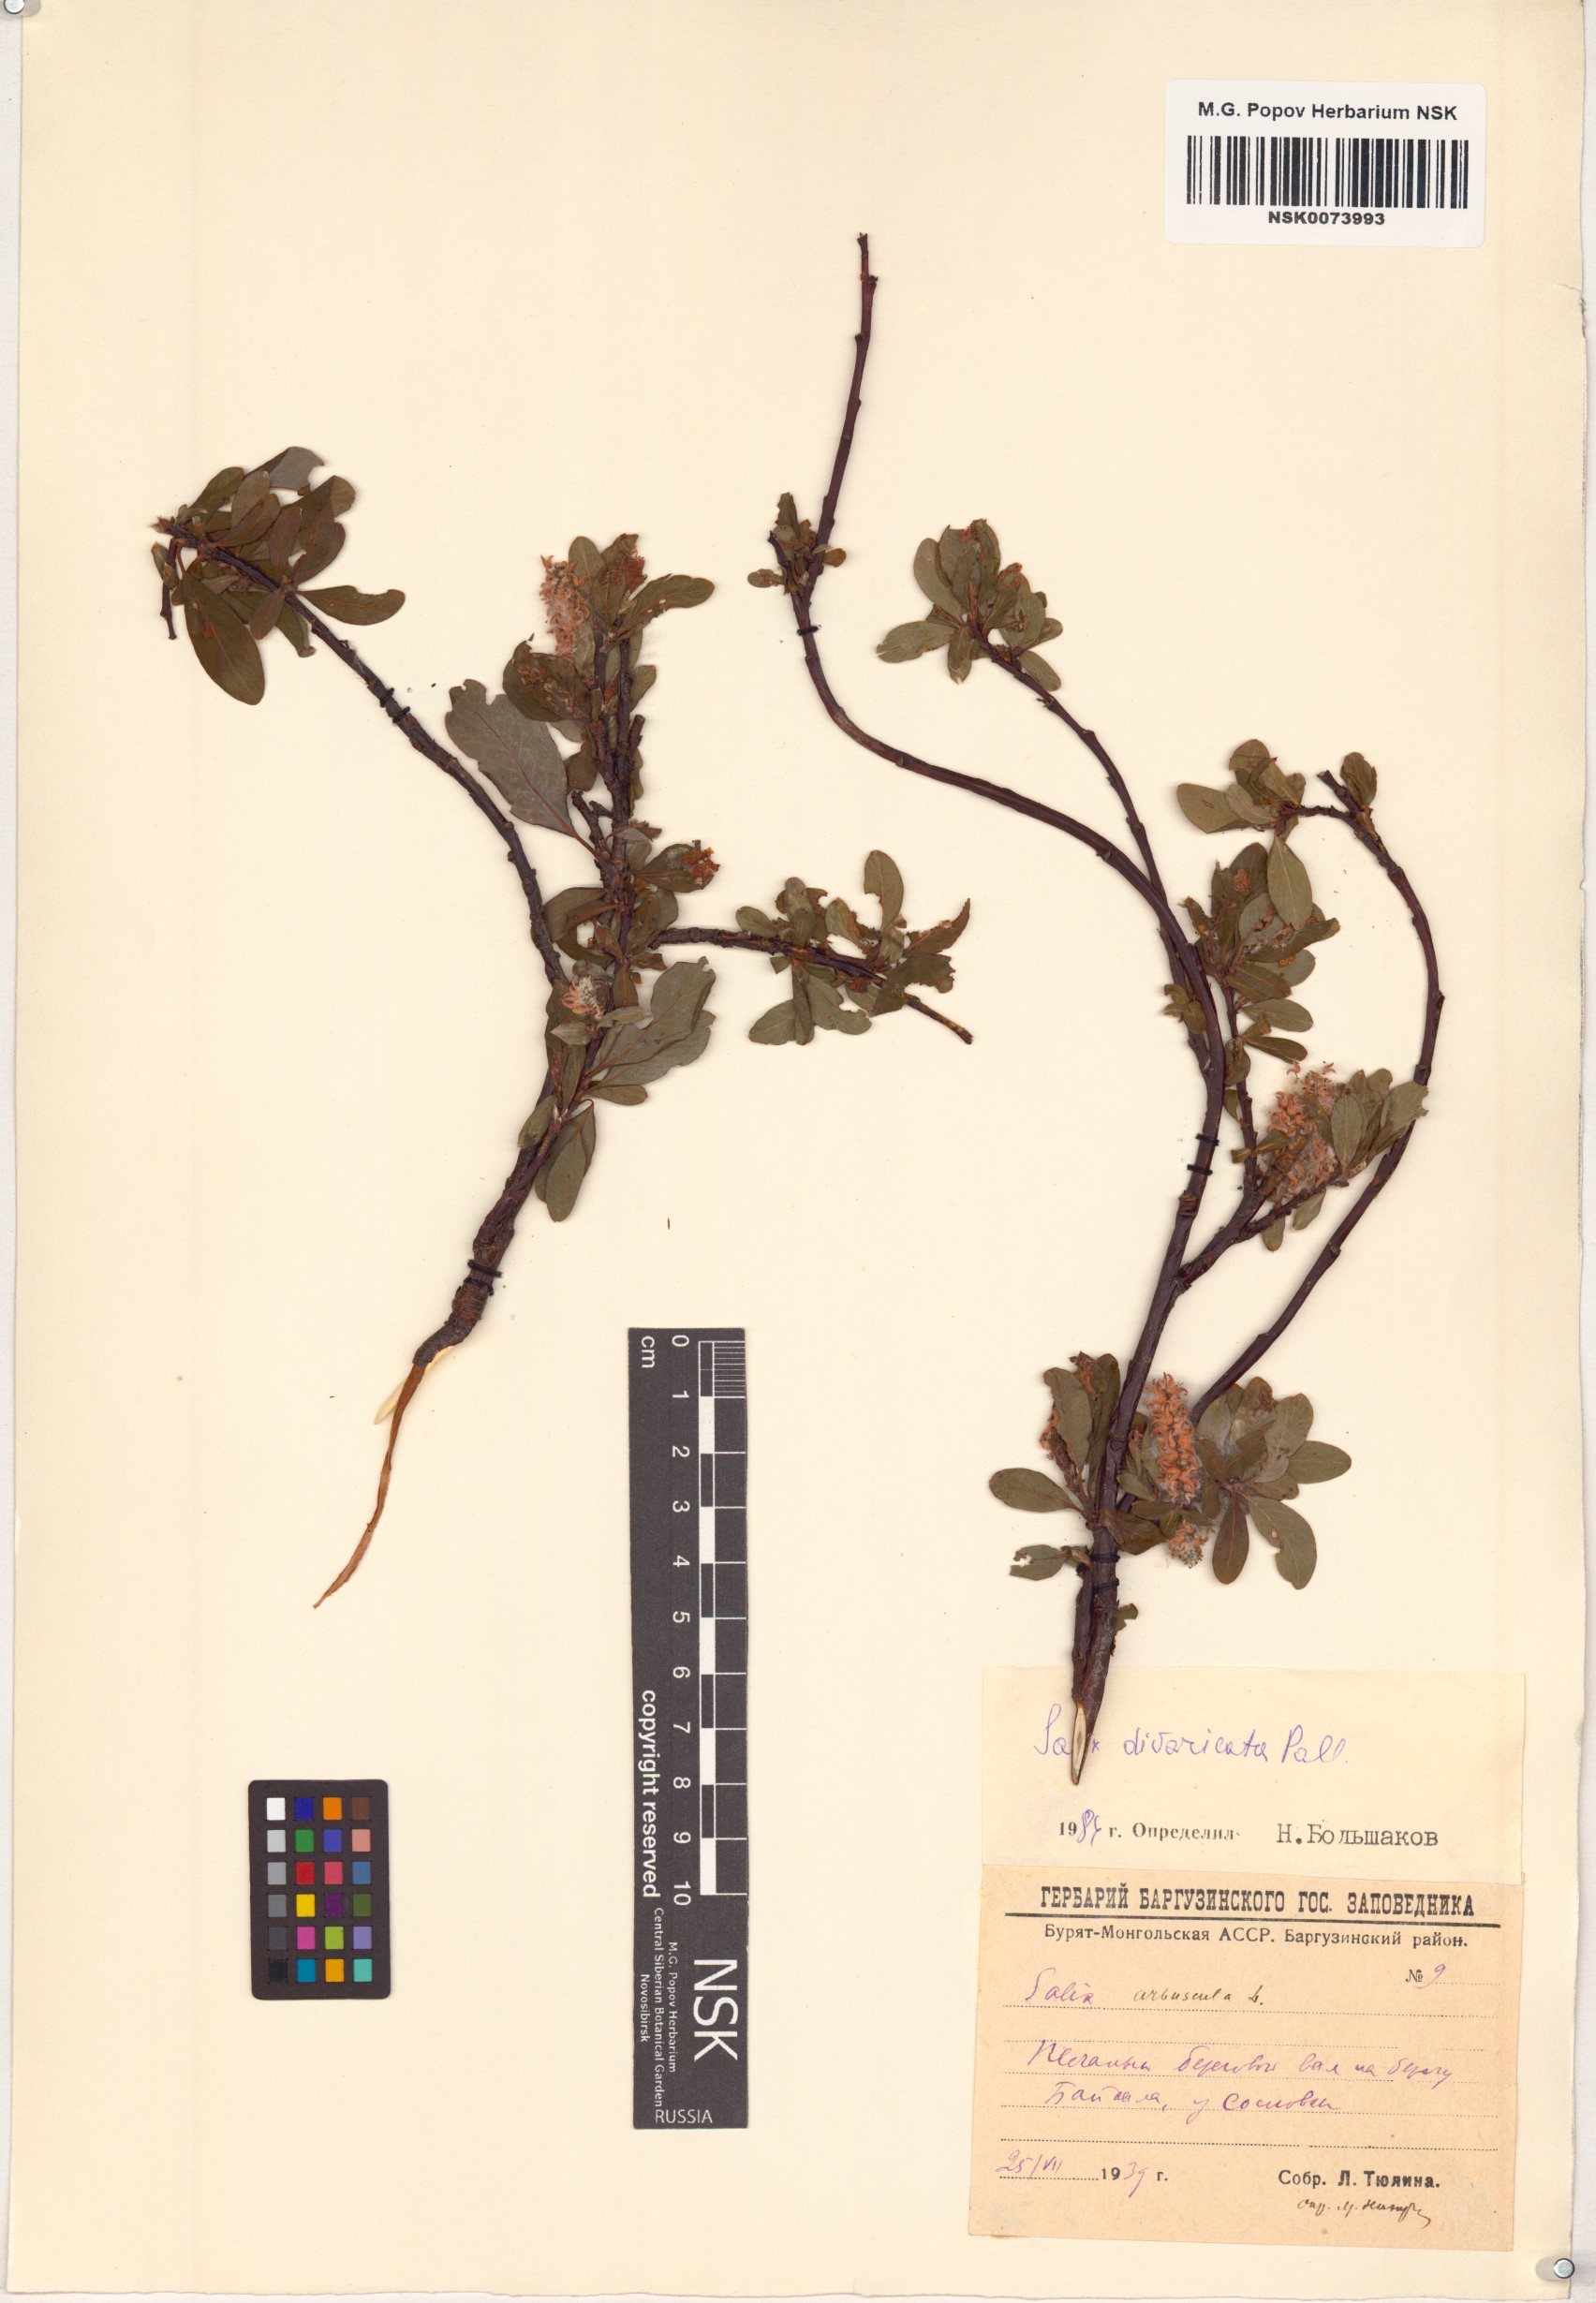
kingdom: Plantae
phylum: Tracheophyta
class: Magnoliopsida
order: Malpighiales
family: Salicaceae
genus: Salix
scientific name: Salix divaricata
